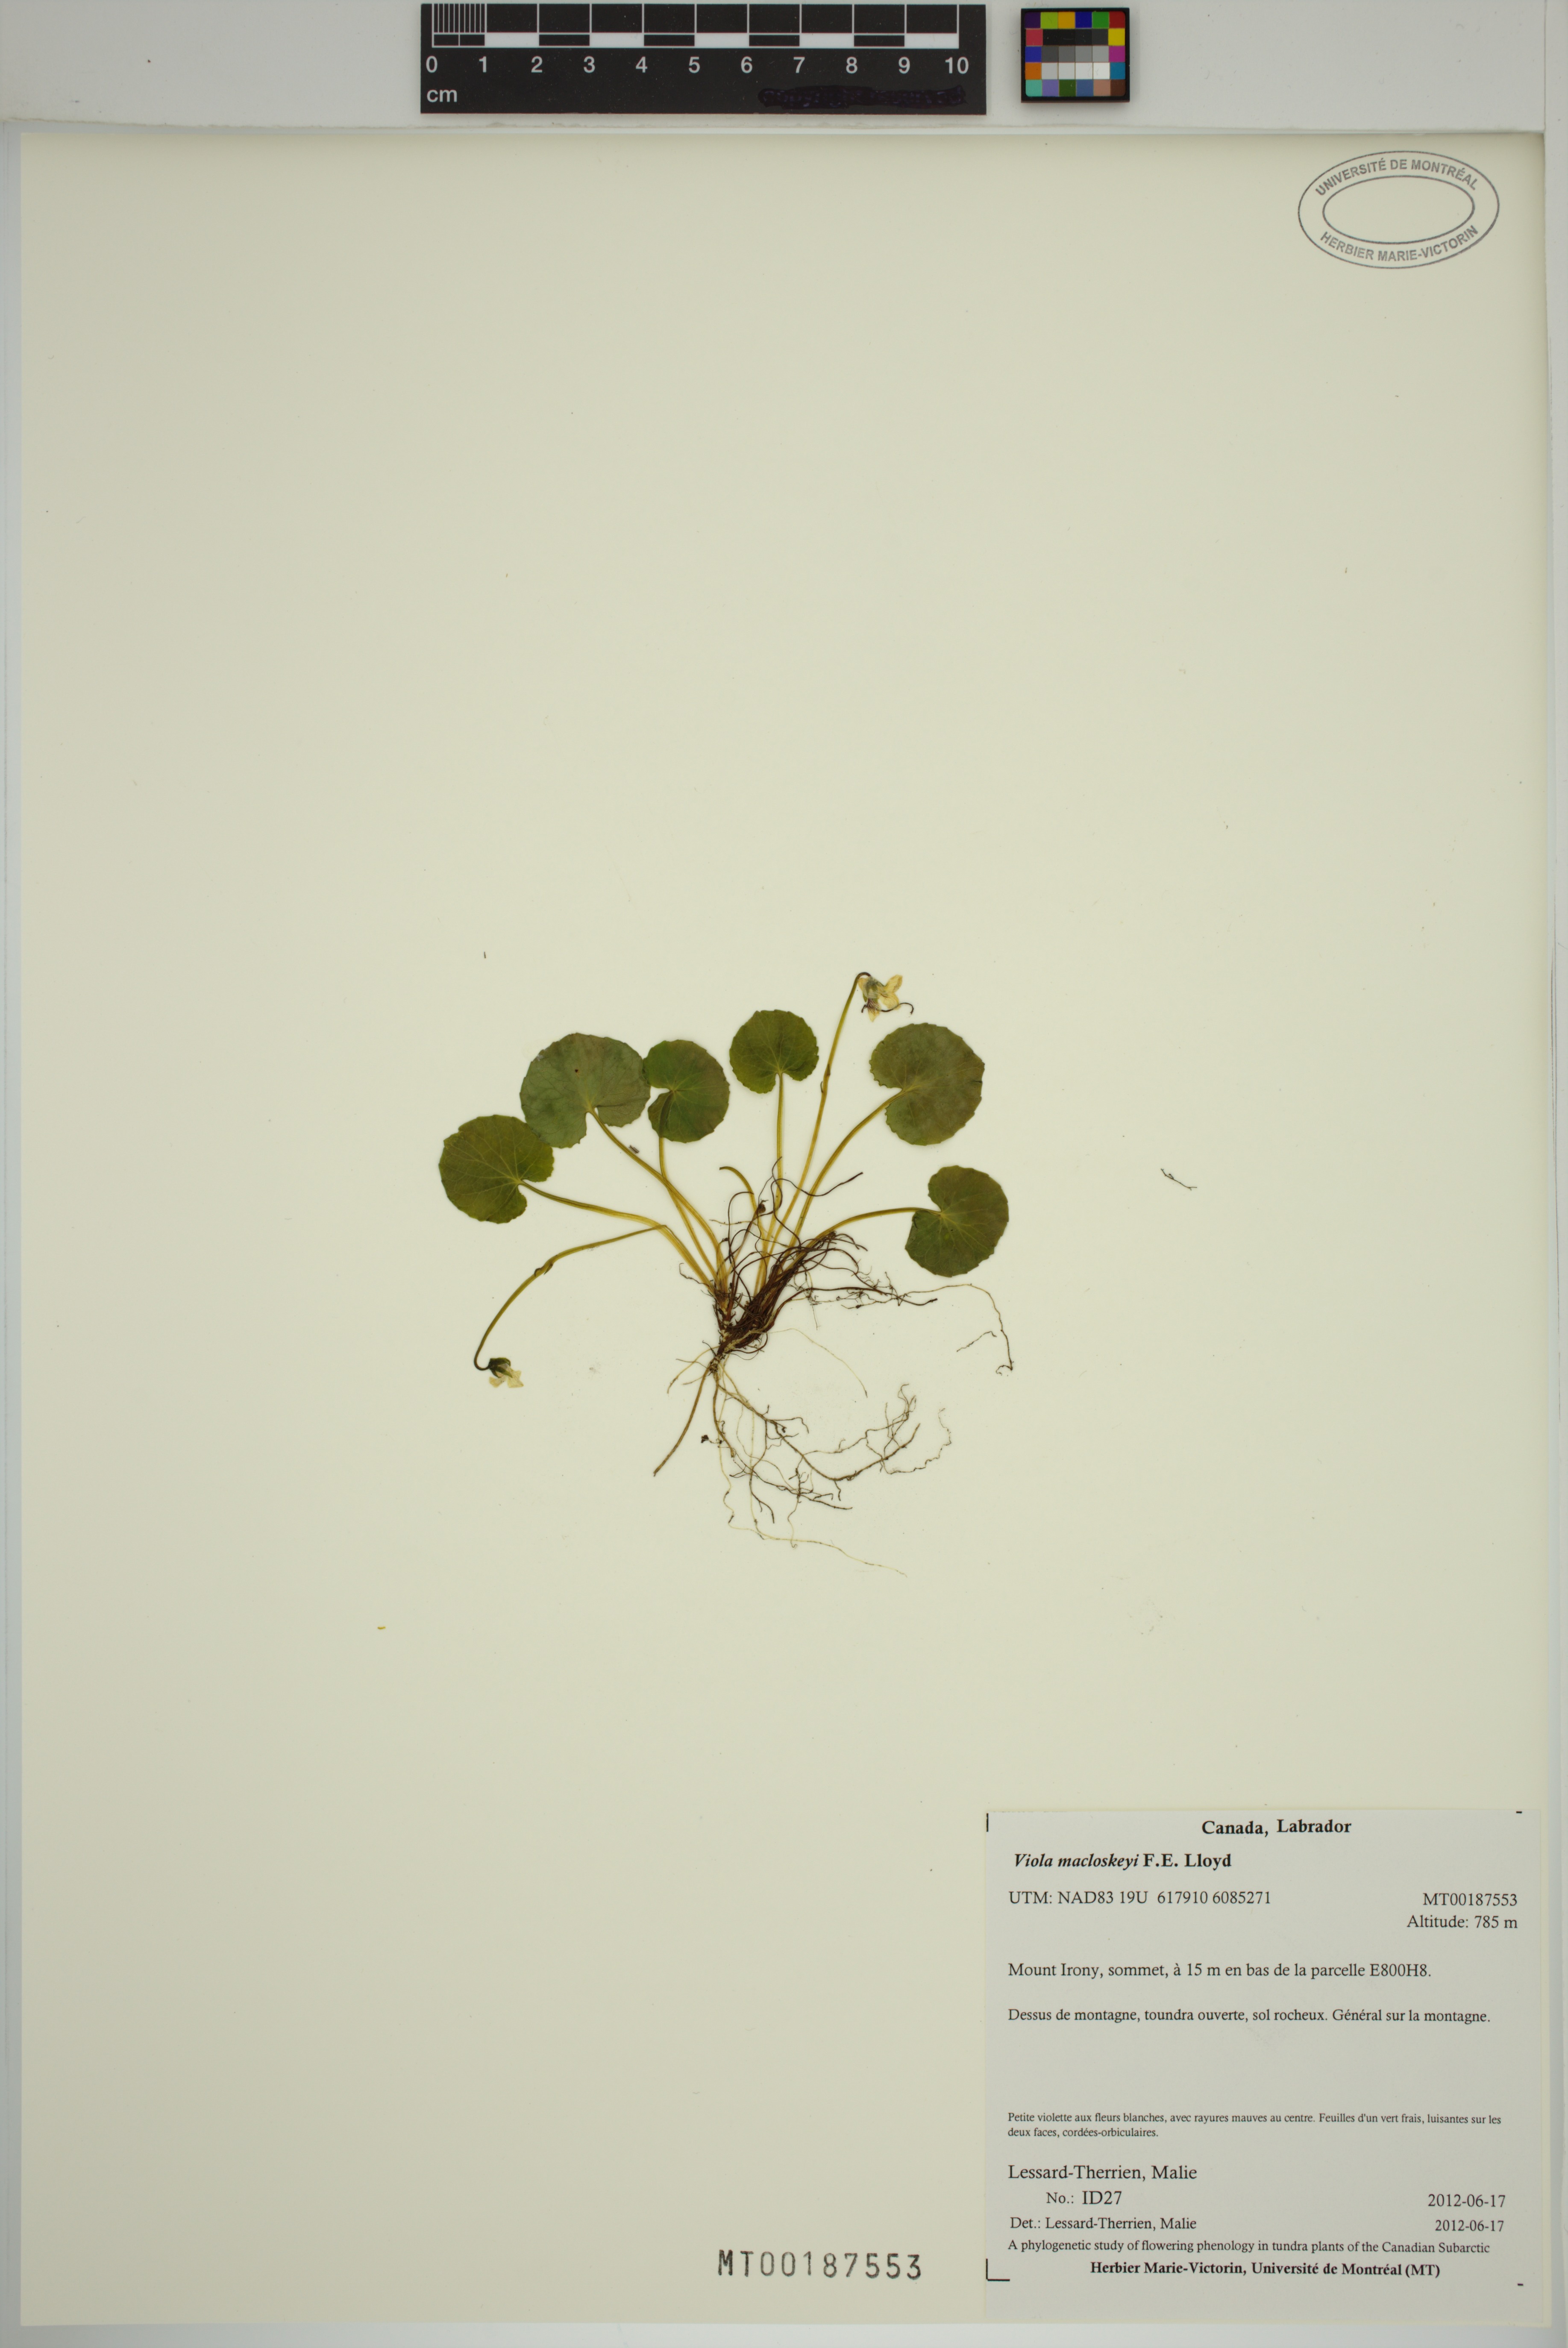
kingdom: Plantae
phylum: Tracheophyta
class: Magnoliopsida
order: Malpighiales
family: Violaceae
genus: Viola
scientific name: Viola macloskeyi
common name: Macloskey's violet
